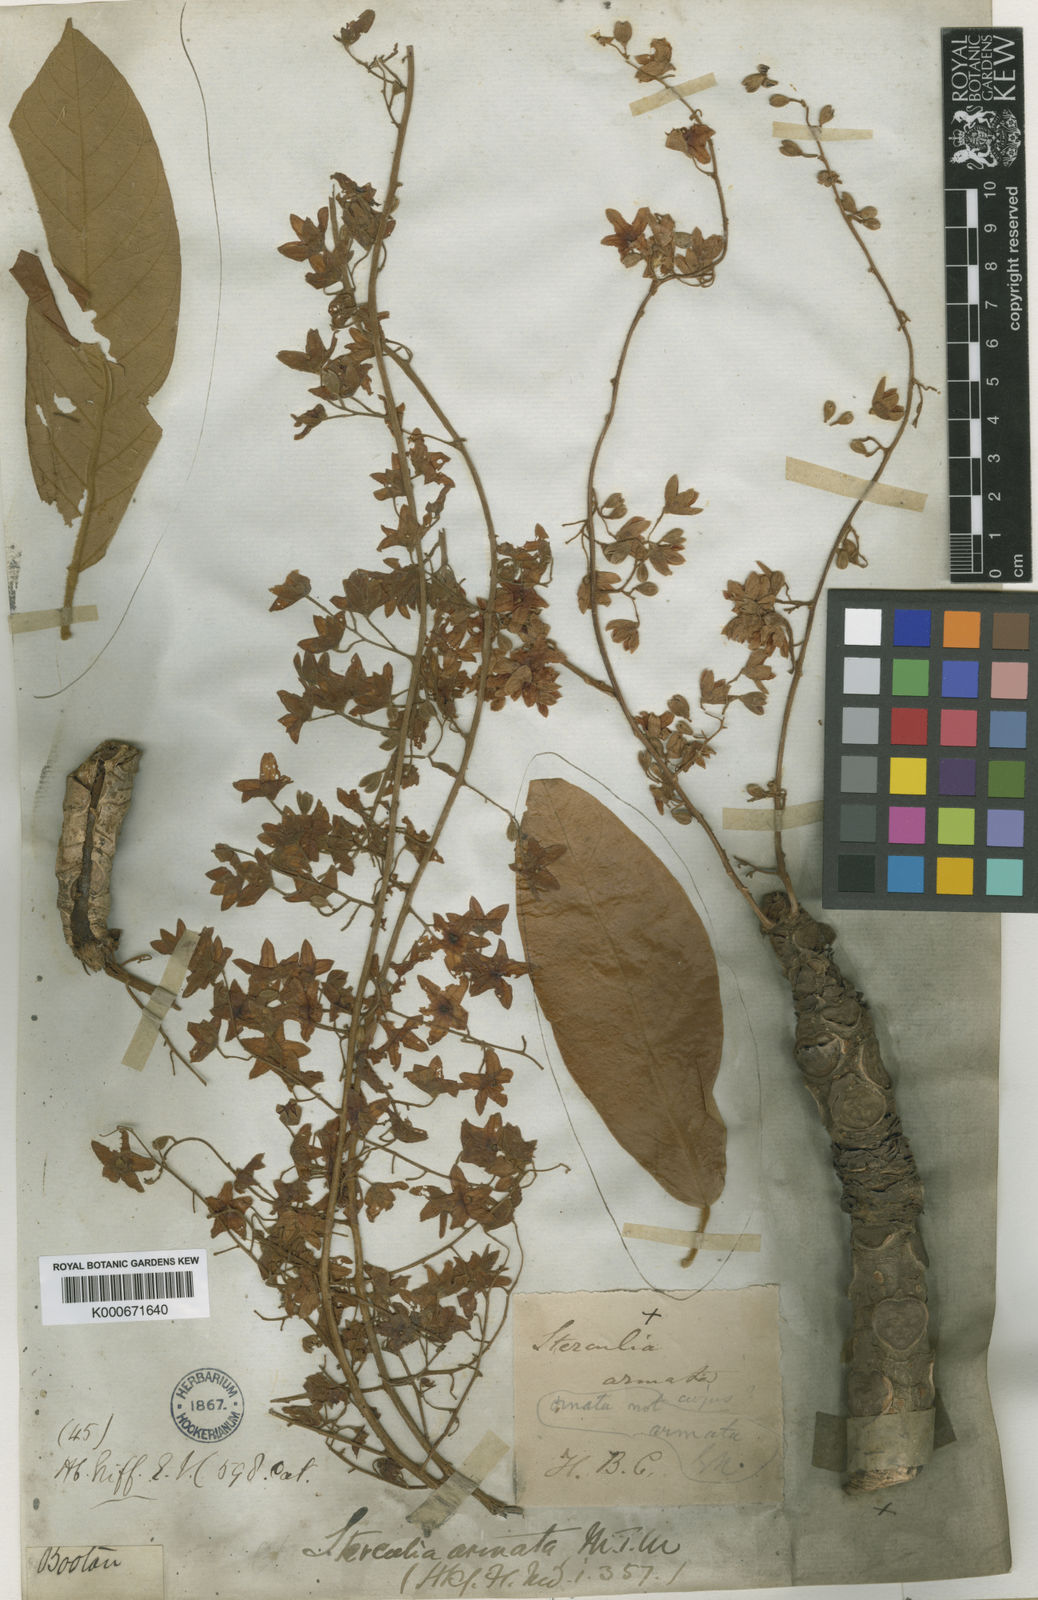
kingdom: Plantae
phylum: Tracheophyta
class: Magnoliopsida
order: Malvales
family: Malvaceae
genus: Sterculia
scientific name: Sterculia villosa
